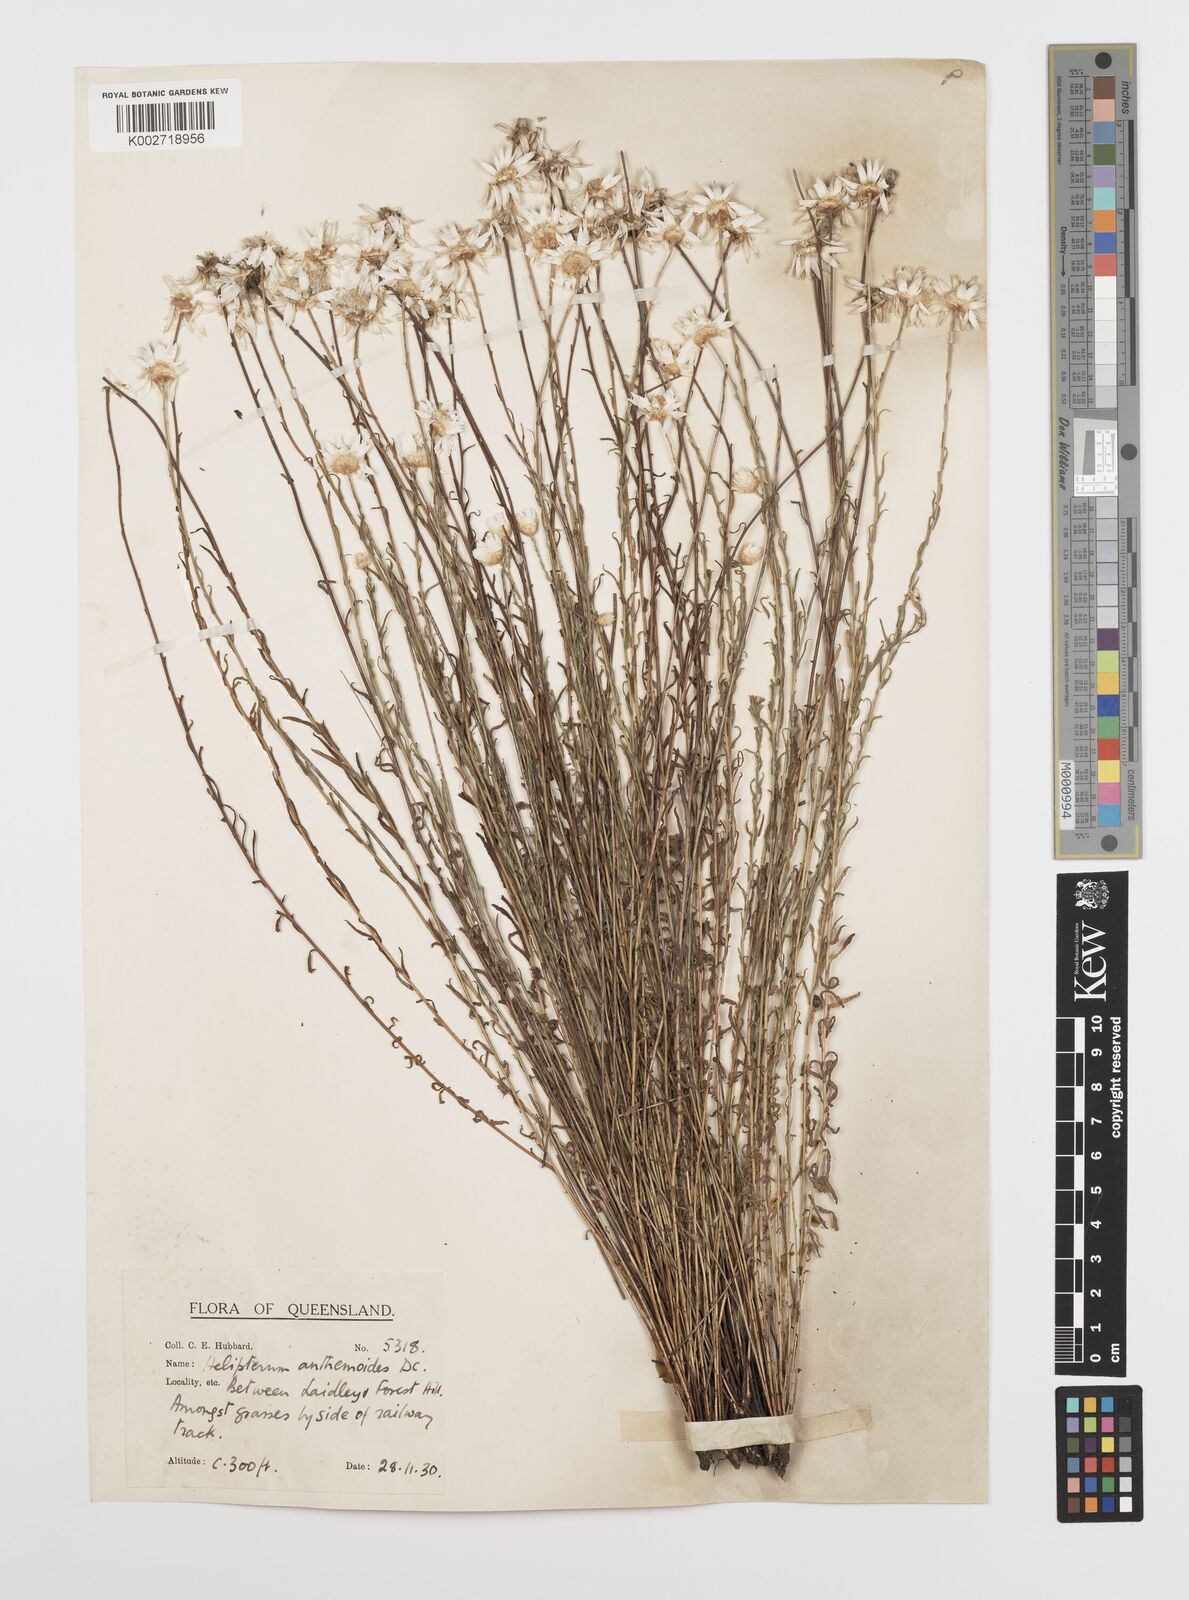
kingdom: Plantae
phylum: Tracheophyta
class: Magnoliopsida
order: Asterales
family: Asteraceae
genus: Rhodanthe
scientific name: Rhodanthe anthemoides
